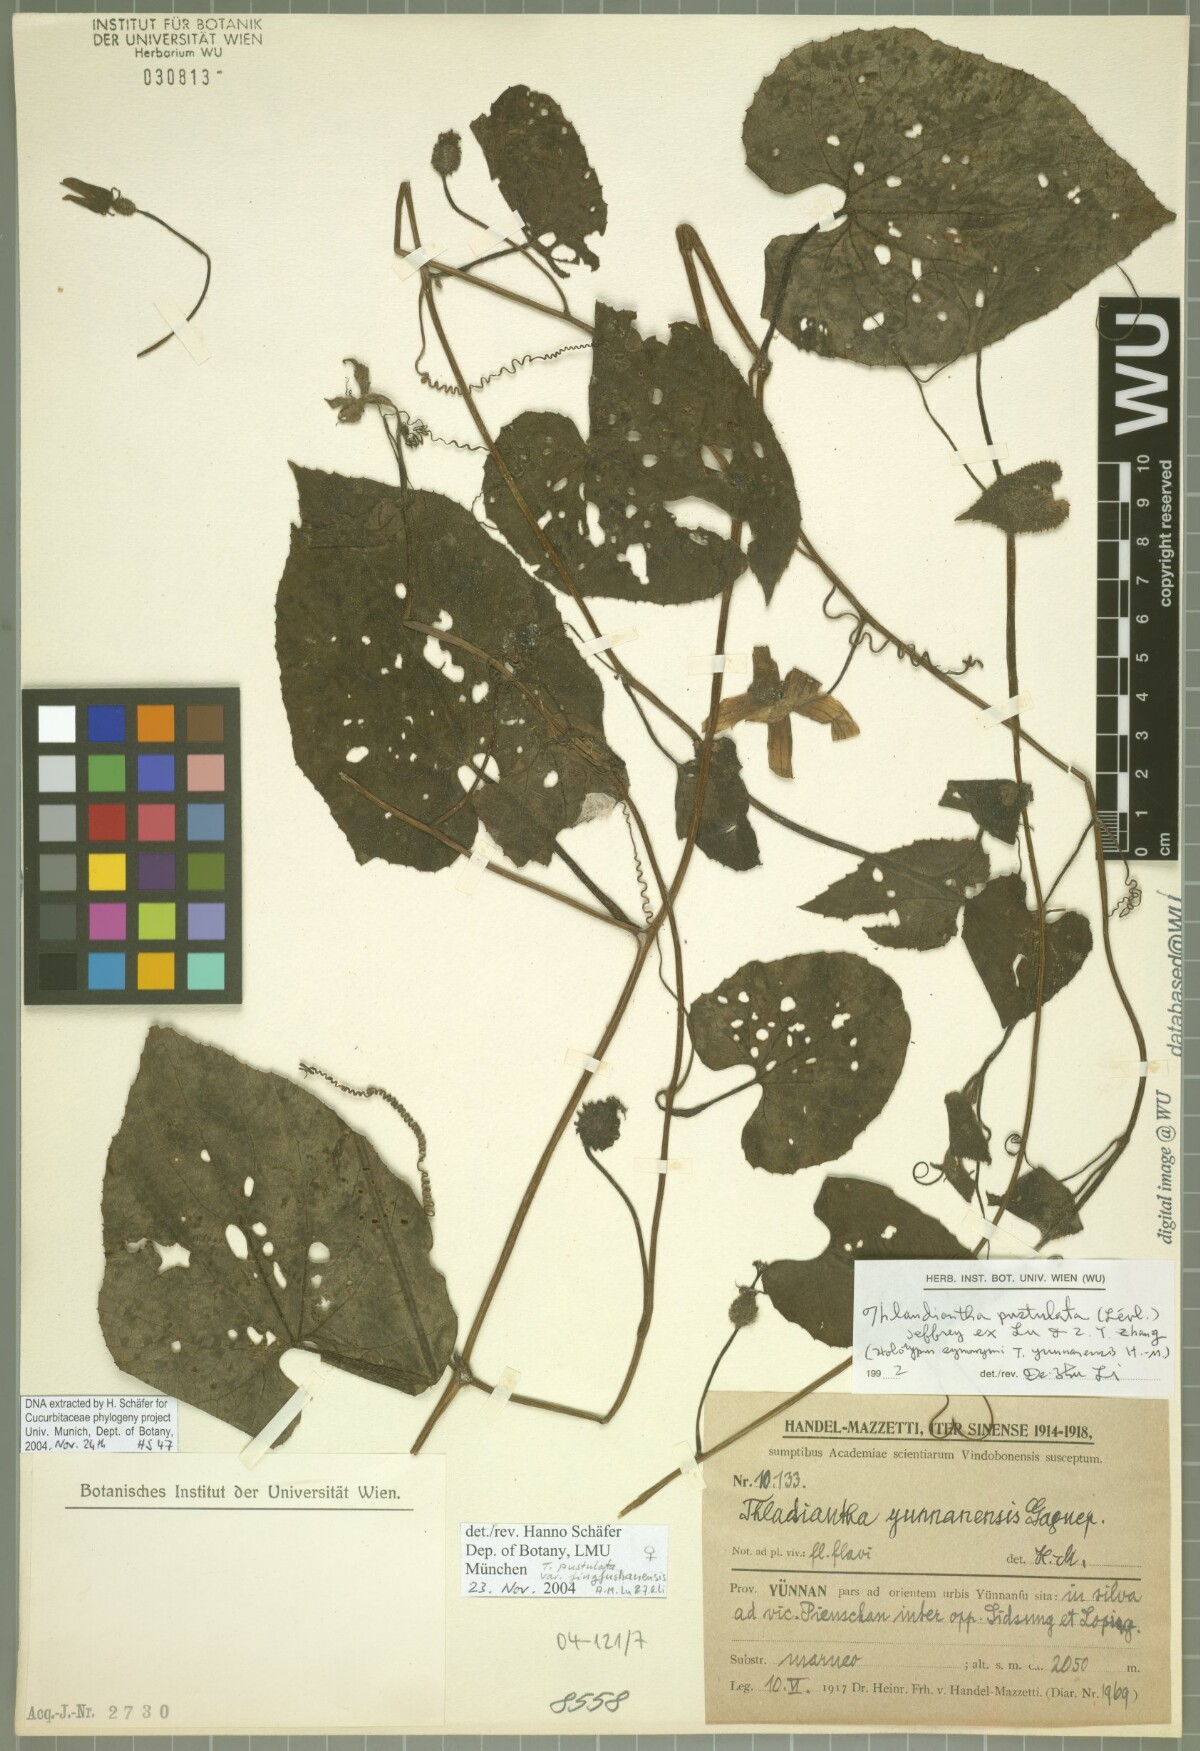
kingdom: Plantae
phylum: Tracheophyta
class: Magnoliopsida
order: Cucurbitales
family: Cucurbitaceae
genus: Thladiantha
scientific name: Thladiantha pustulata
